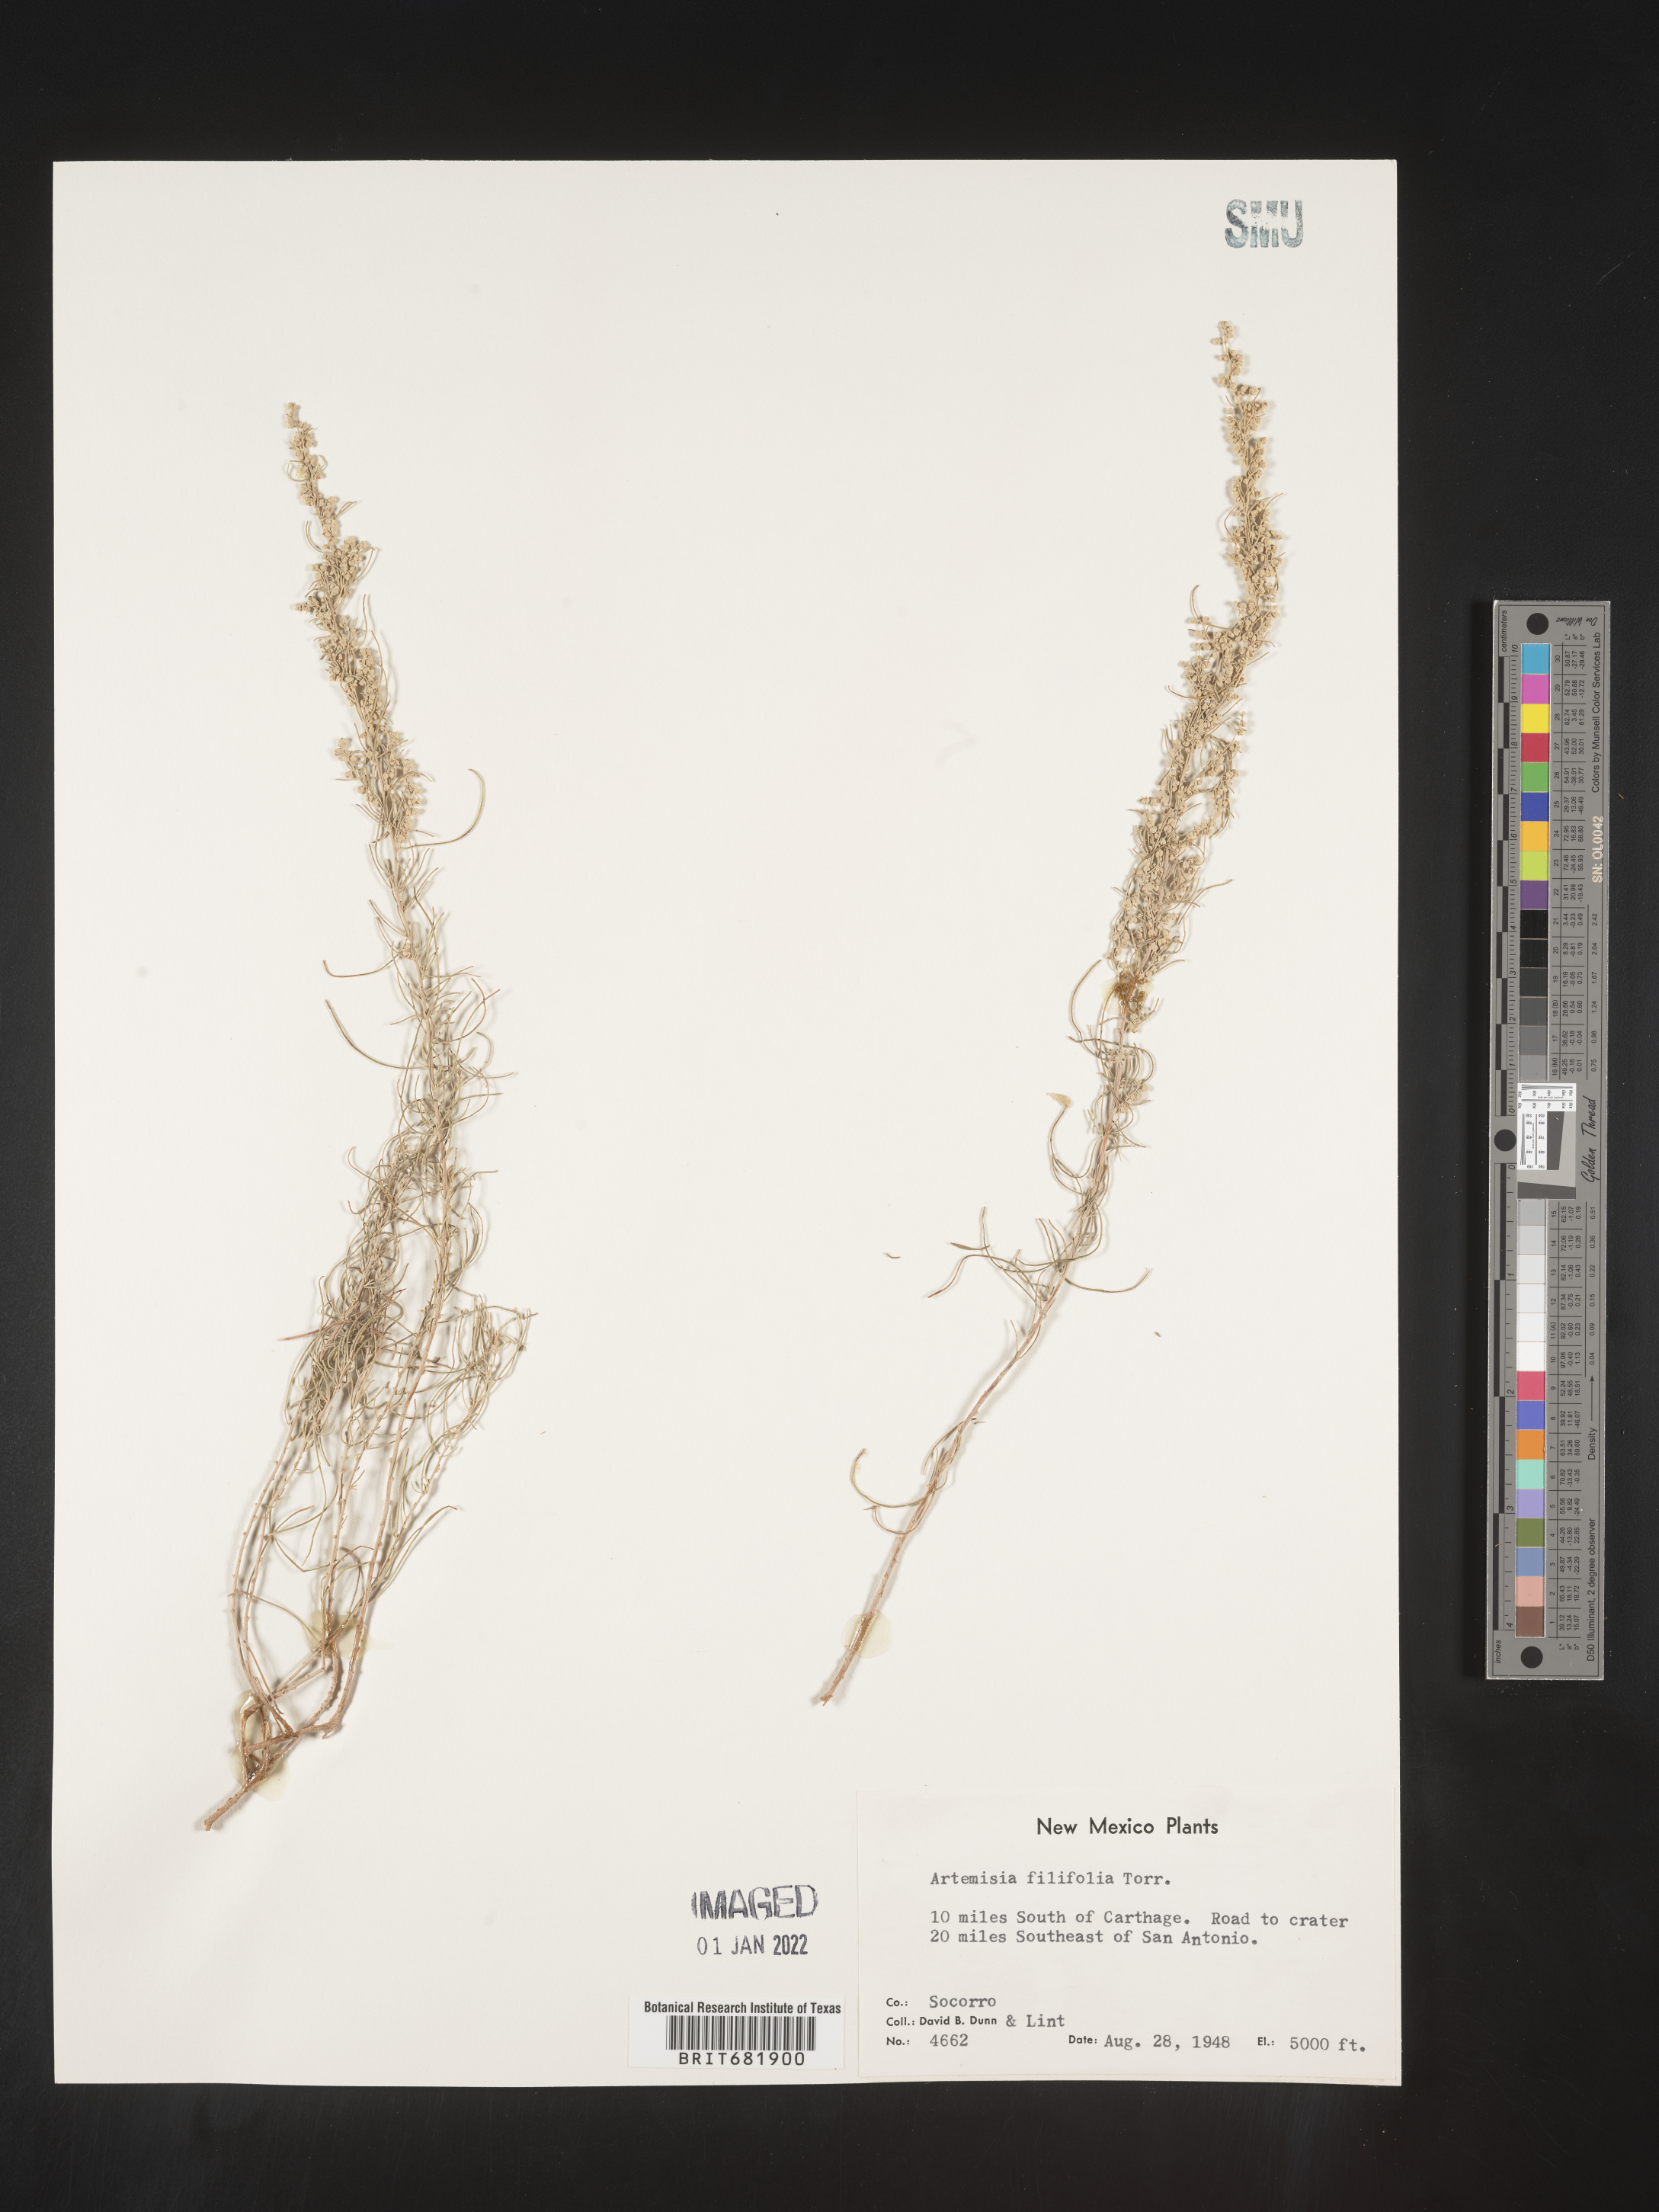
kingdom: Plantae
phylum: Tracheophyta
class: Magnoliopsida
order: Asterales
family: Asteraceae
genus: Artemisia
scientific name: Artemisia filifolia
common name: Sand-sage
